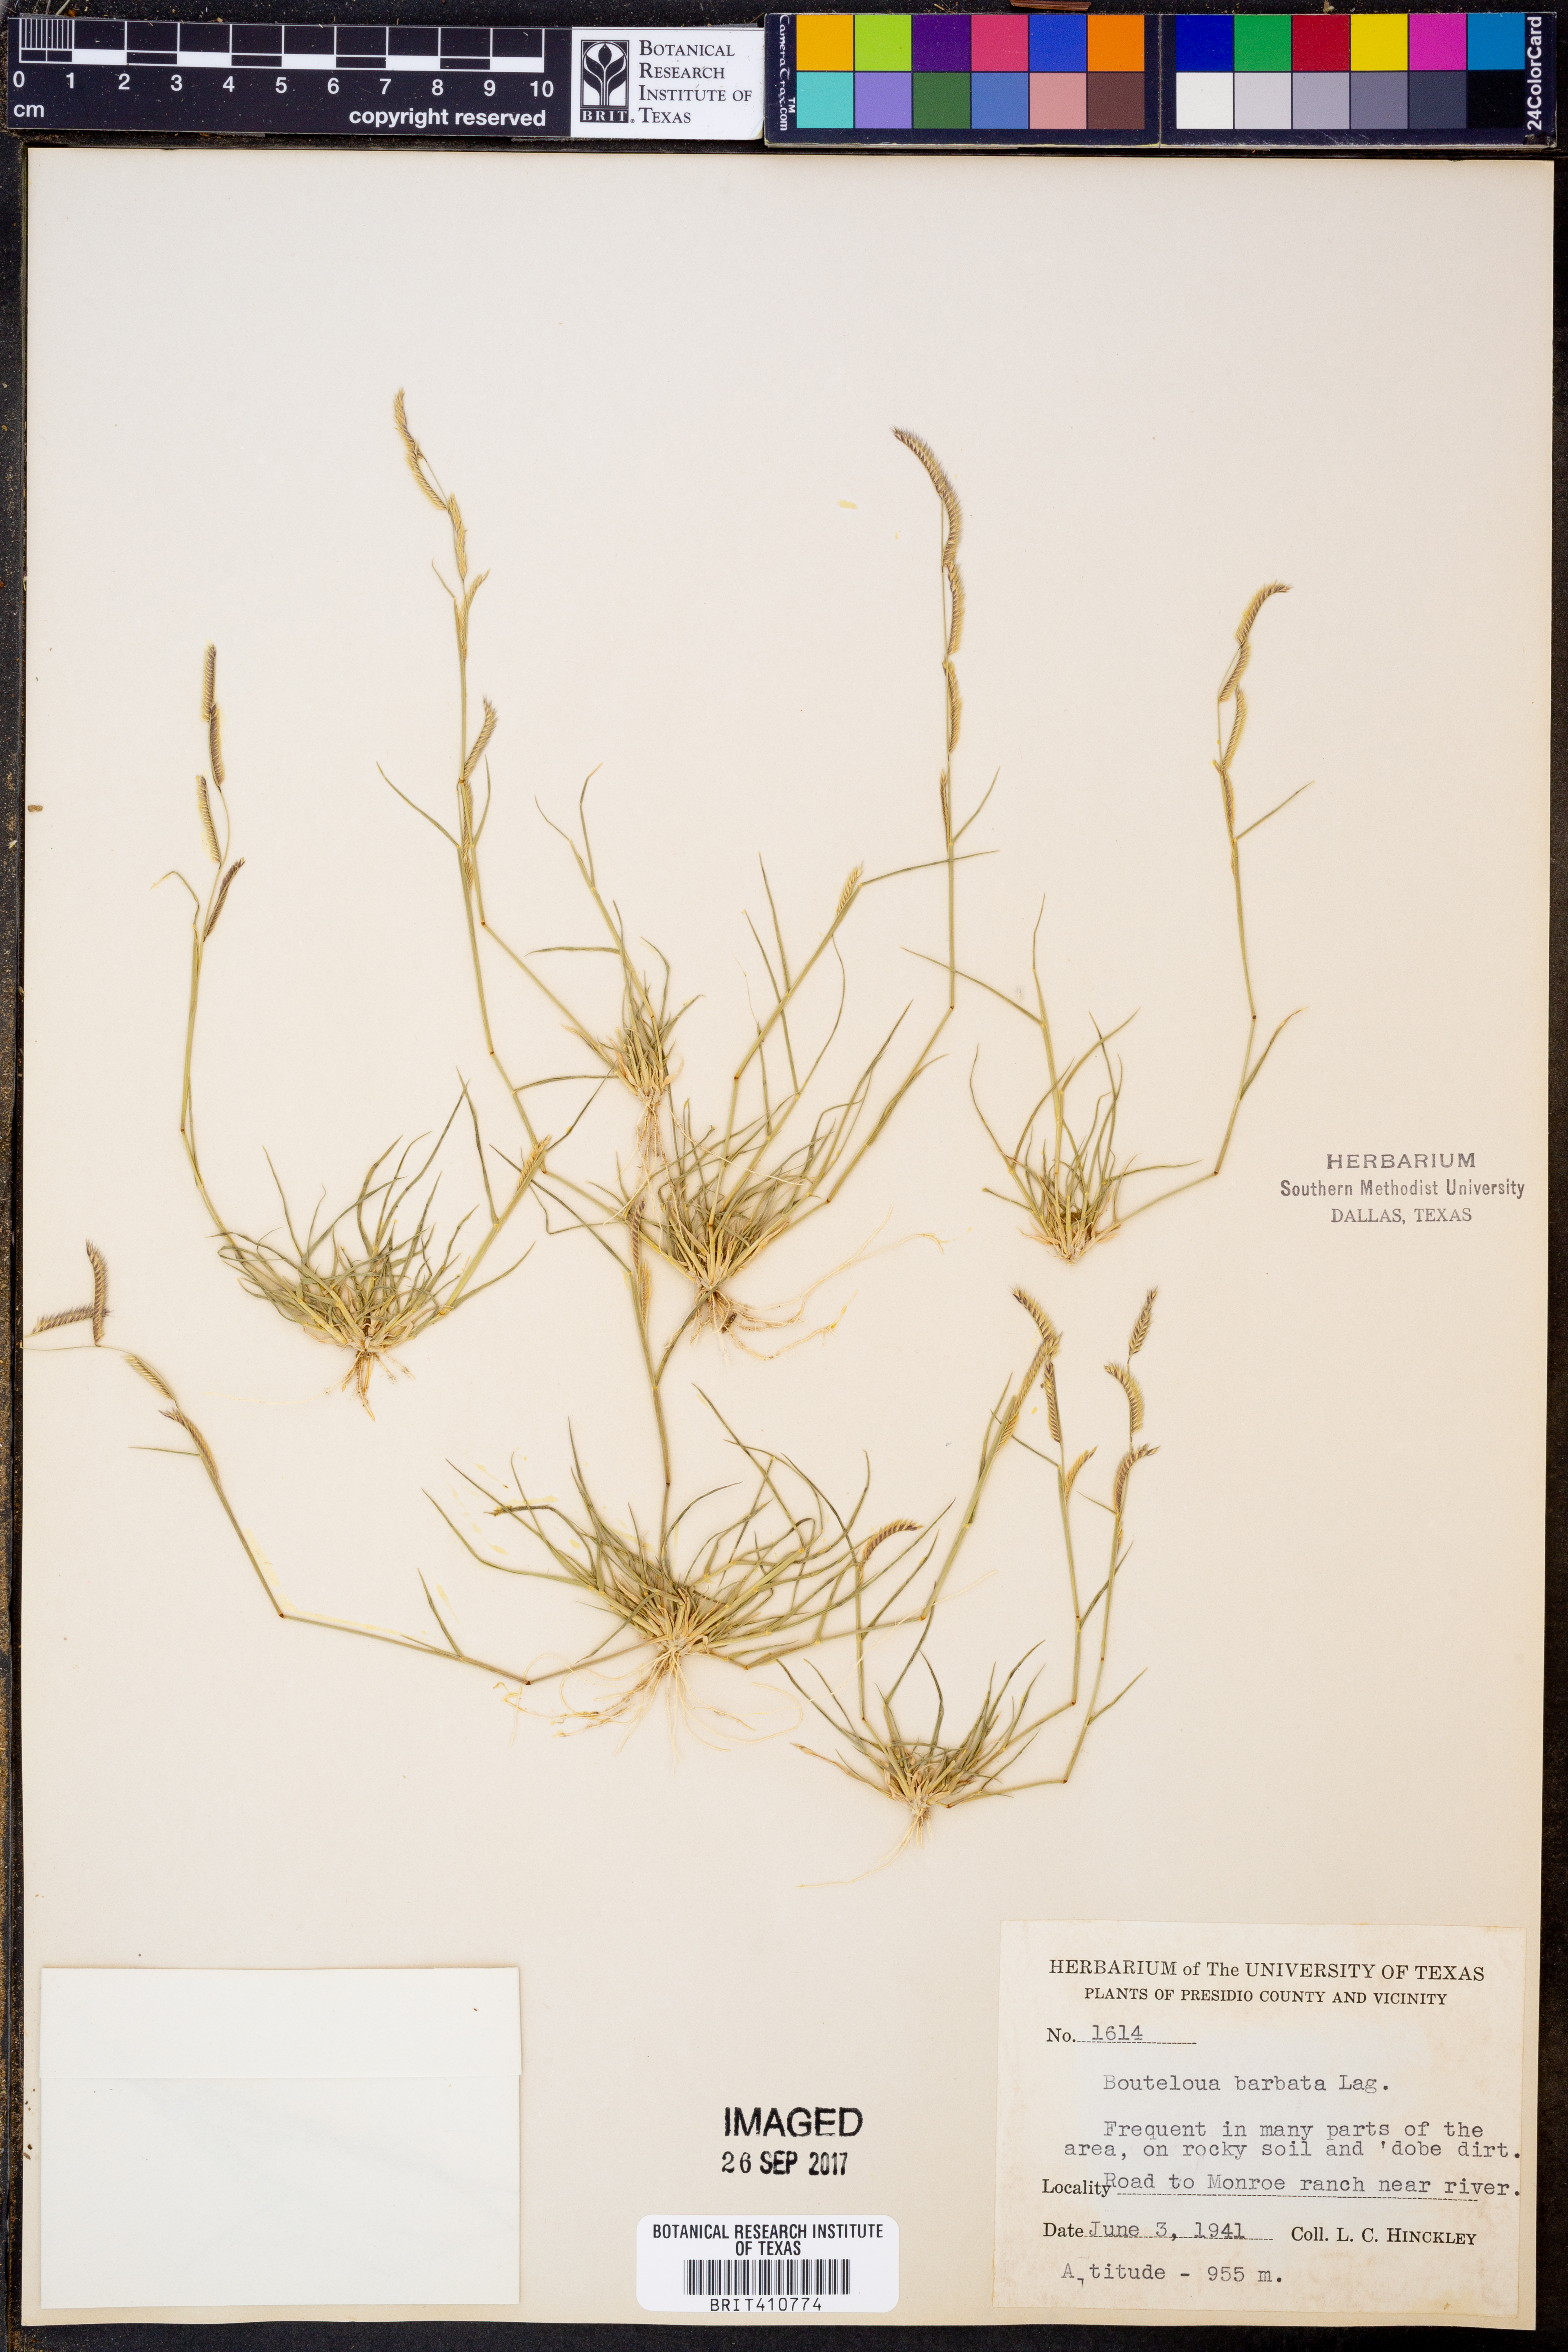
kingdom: Plantae
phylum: Tracheophyta
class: Liliopsida
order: Poales
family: Poaceae
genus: Bouteloua
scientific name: Bouteloua barbata
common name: Six-weeks grama
